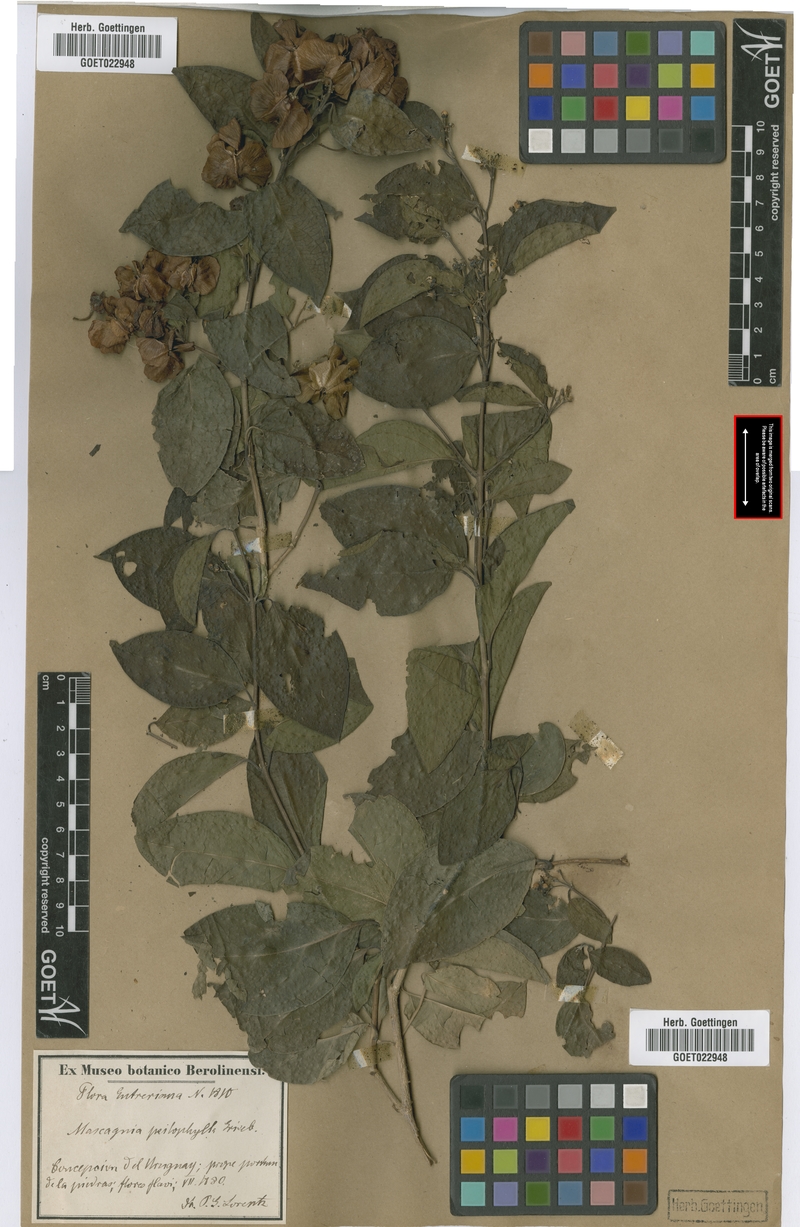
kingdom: Plantae
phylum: Tracheophyta
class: Magnoliopsida
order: Malpighiales
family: Malpighiaceae
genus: Callaeum
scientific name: Callaeum psilophyllum
